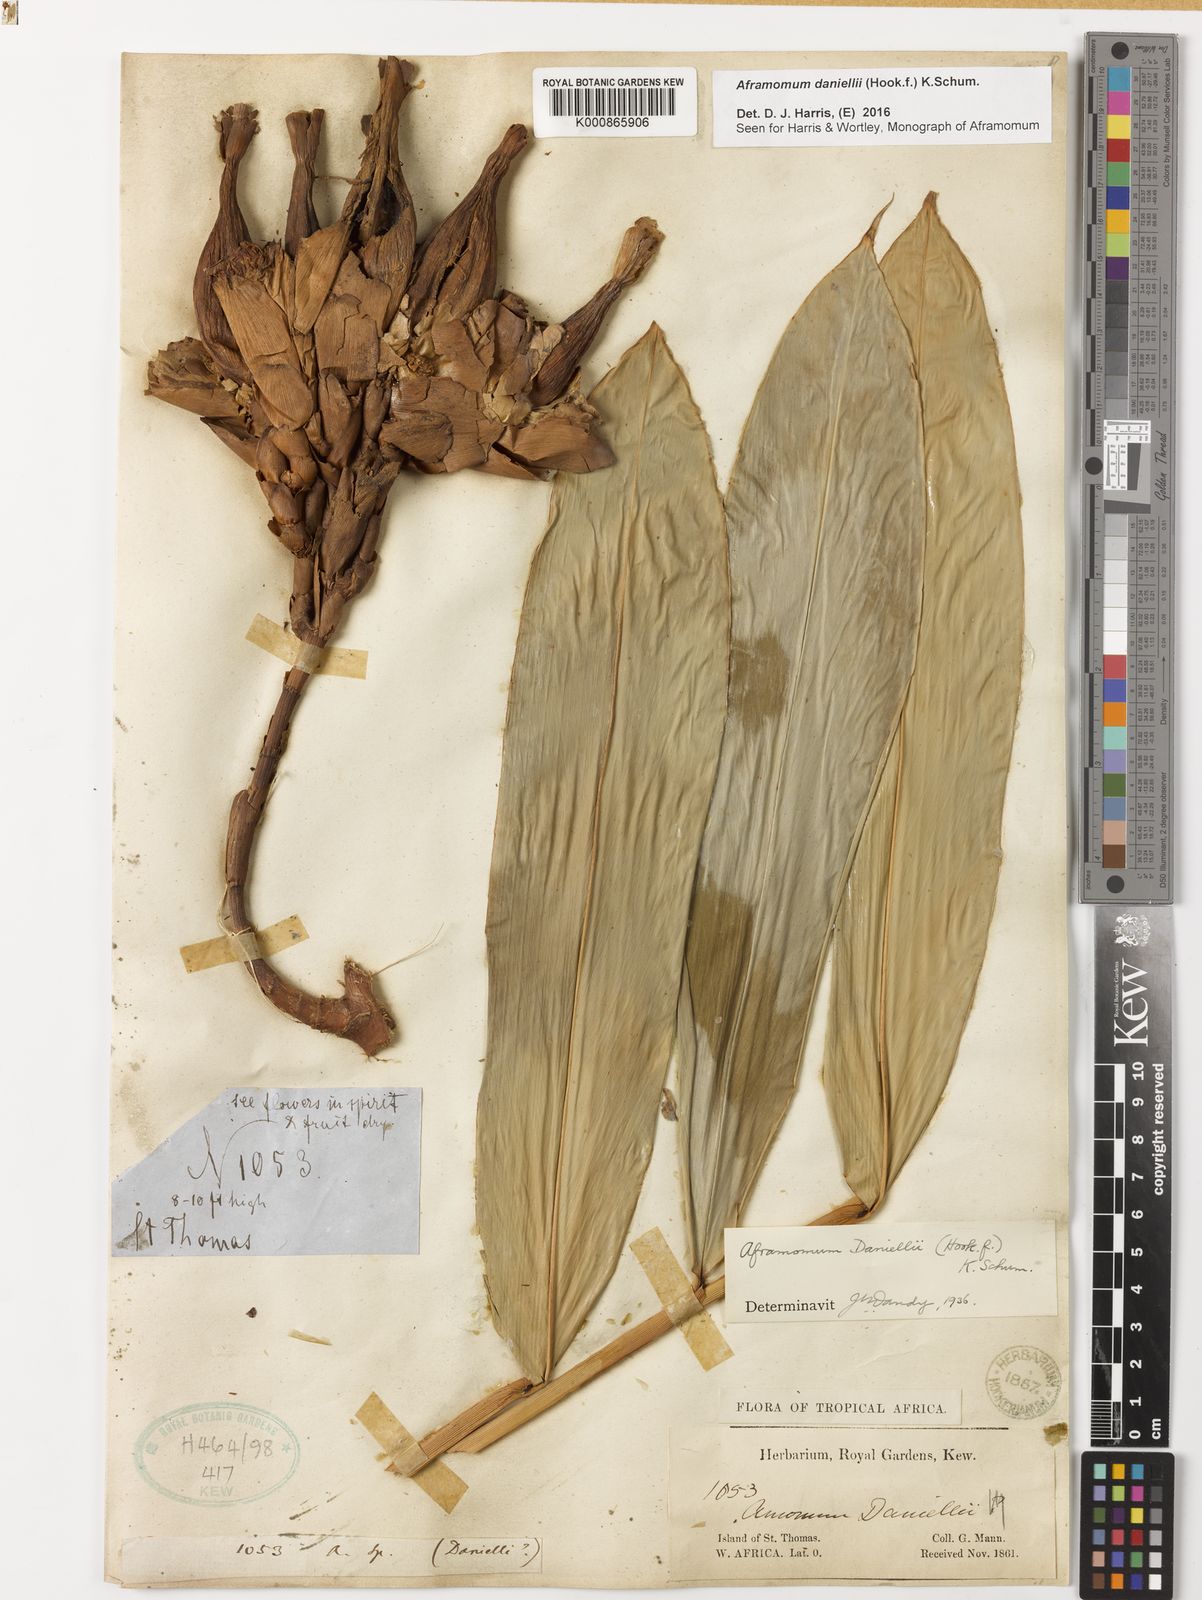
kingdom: Plantae
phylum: Tracheophyta
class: Liliopsida
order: Zingiberales
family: Zingiberaceae
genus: Aframomum
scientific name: Aframomum daniellii
